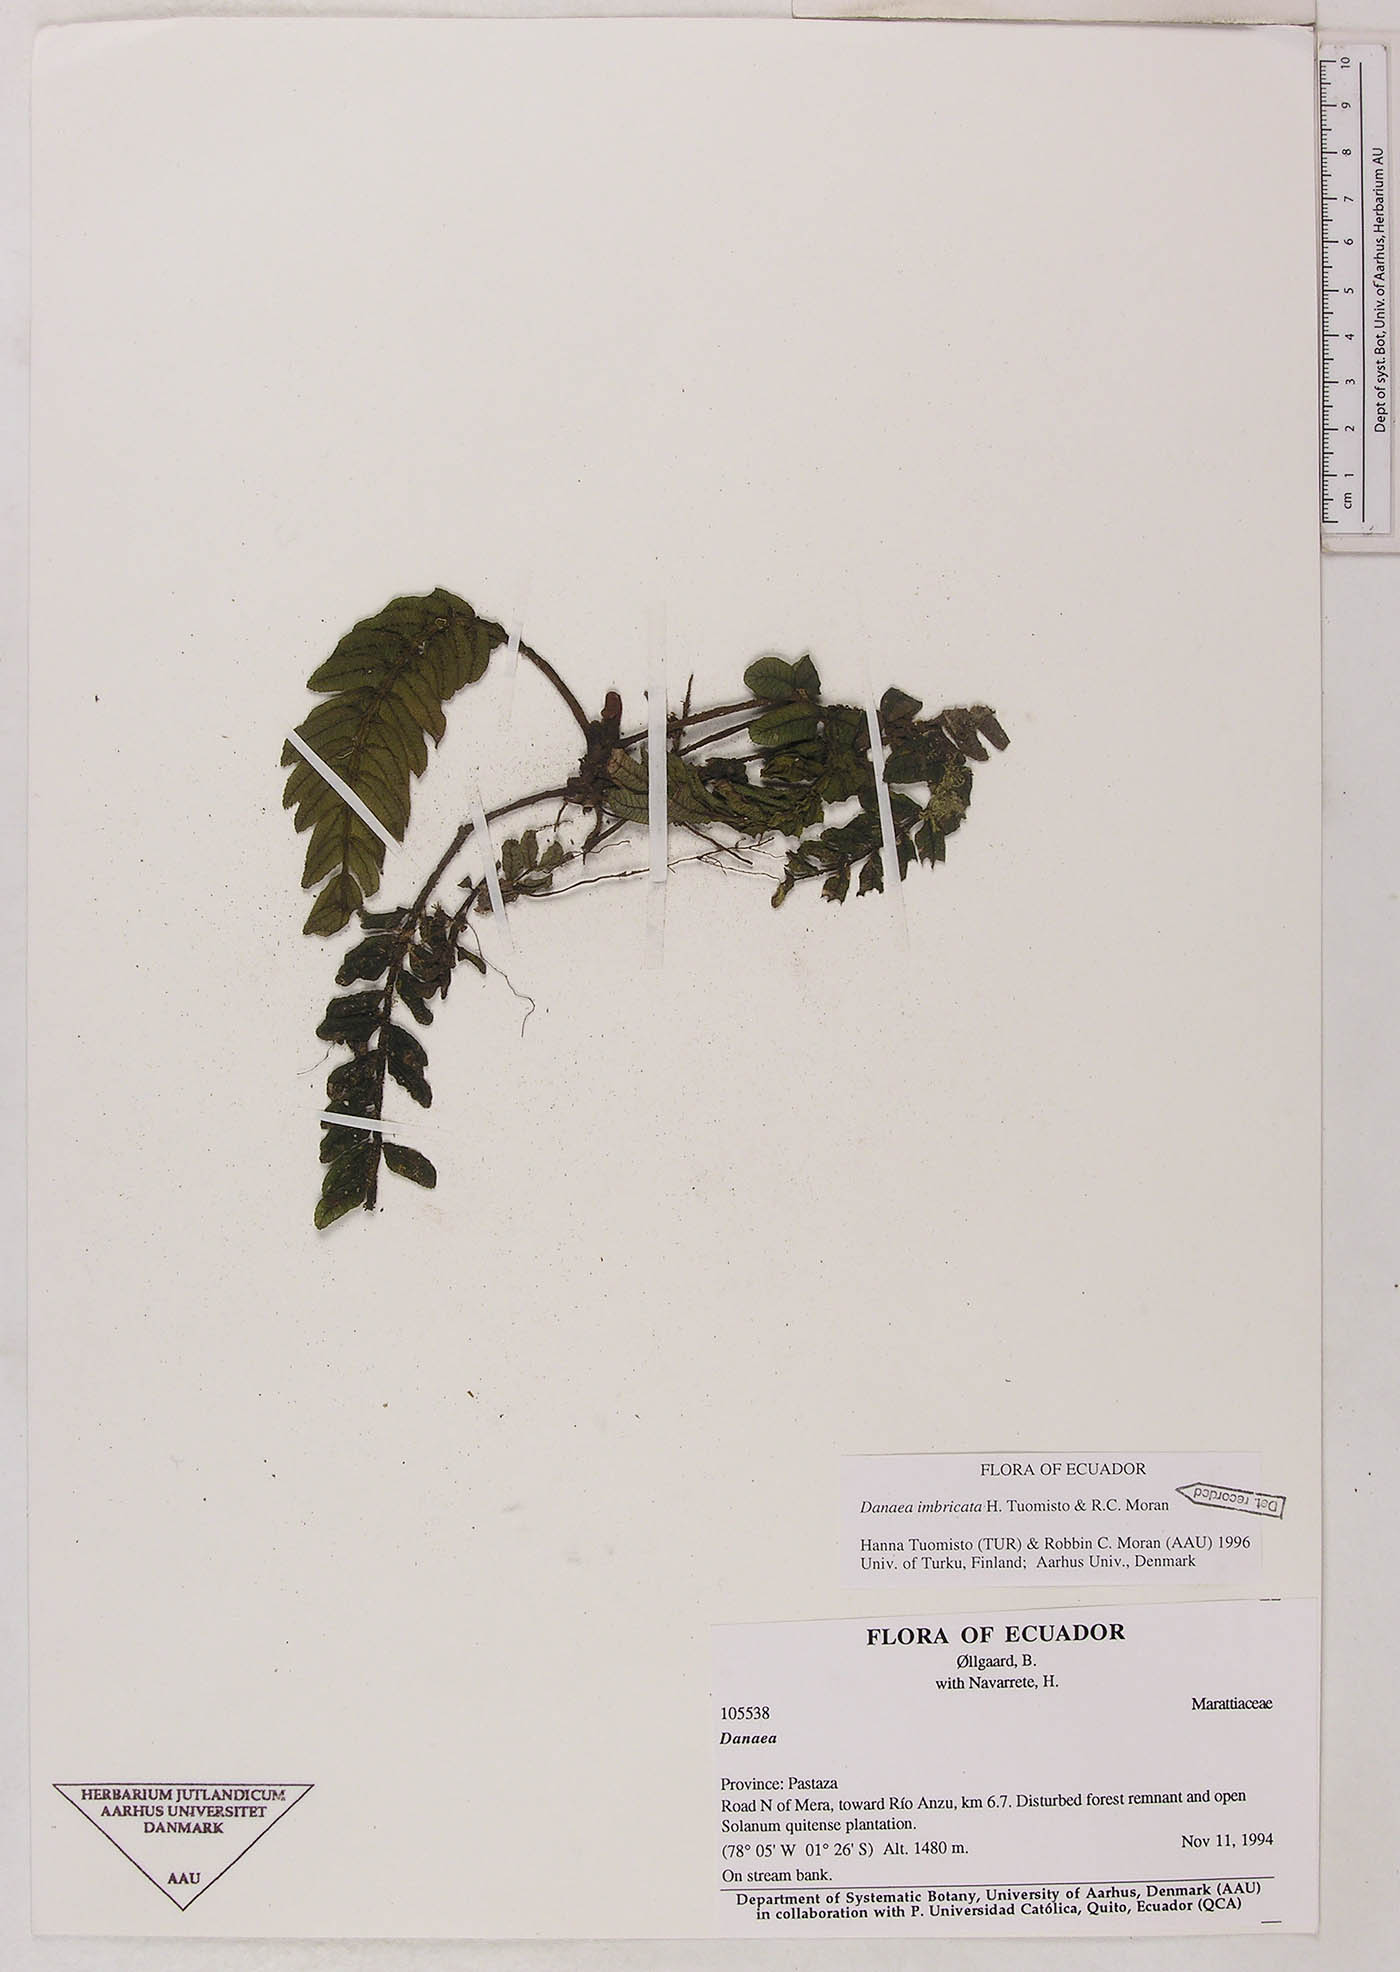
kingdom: Plantae
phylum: Tracheophyta
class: Polypodiopsida
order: Marattiales
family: Marattiaceae
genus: Danaea
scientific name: Danaea
